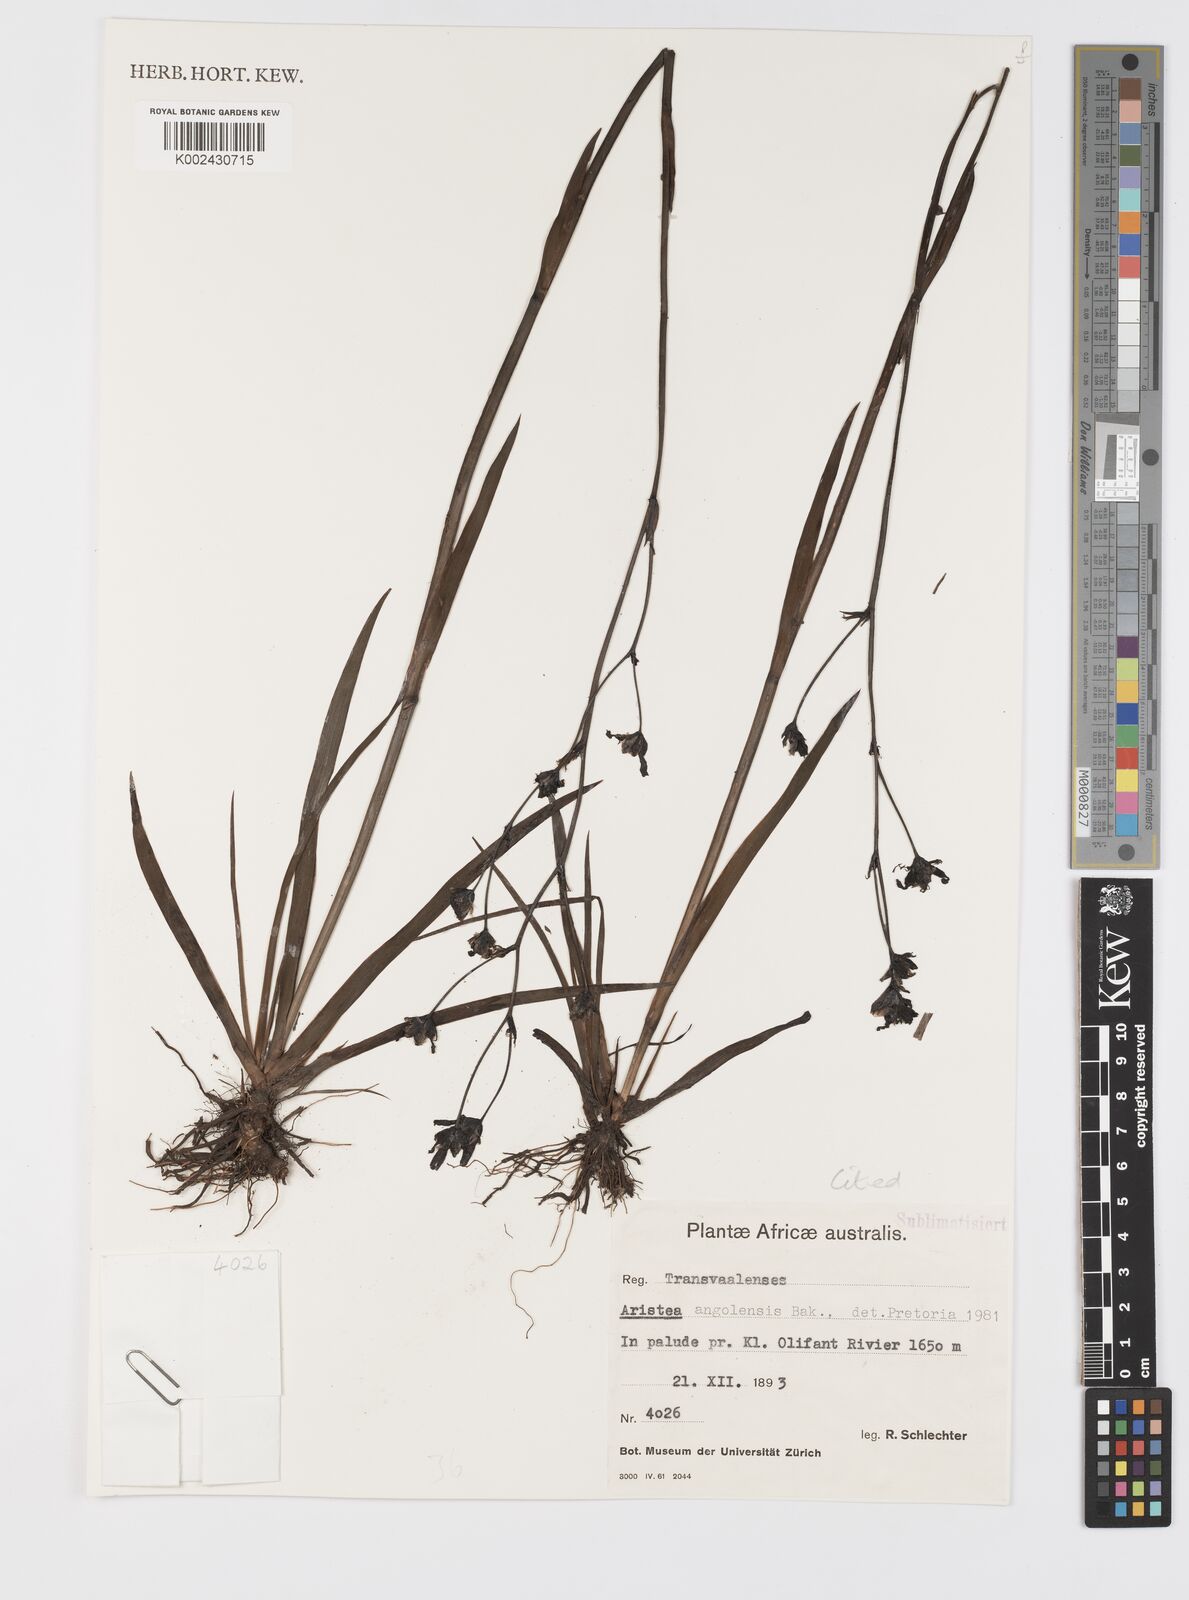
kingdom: Plantae
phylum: Tracheophyta
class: Liliopsida
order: Asparagales
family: Iridaceae
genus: Aristea
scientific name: Aristea angolensis
